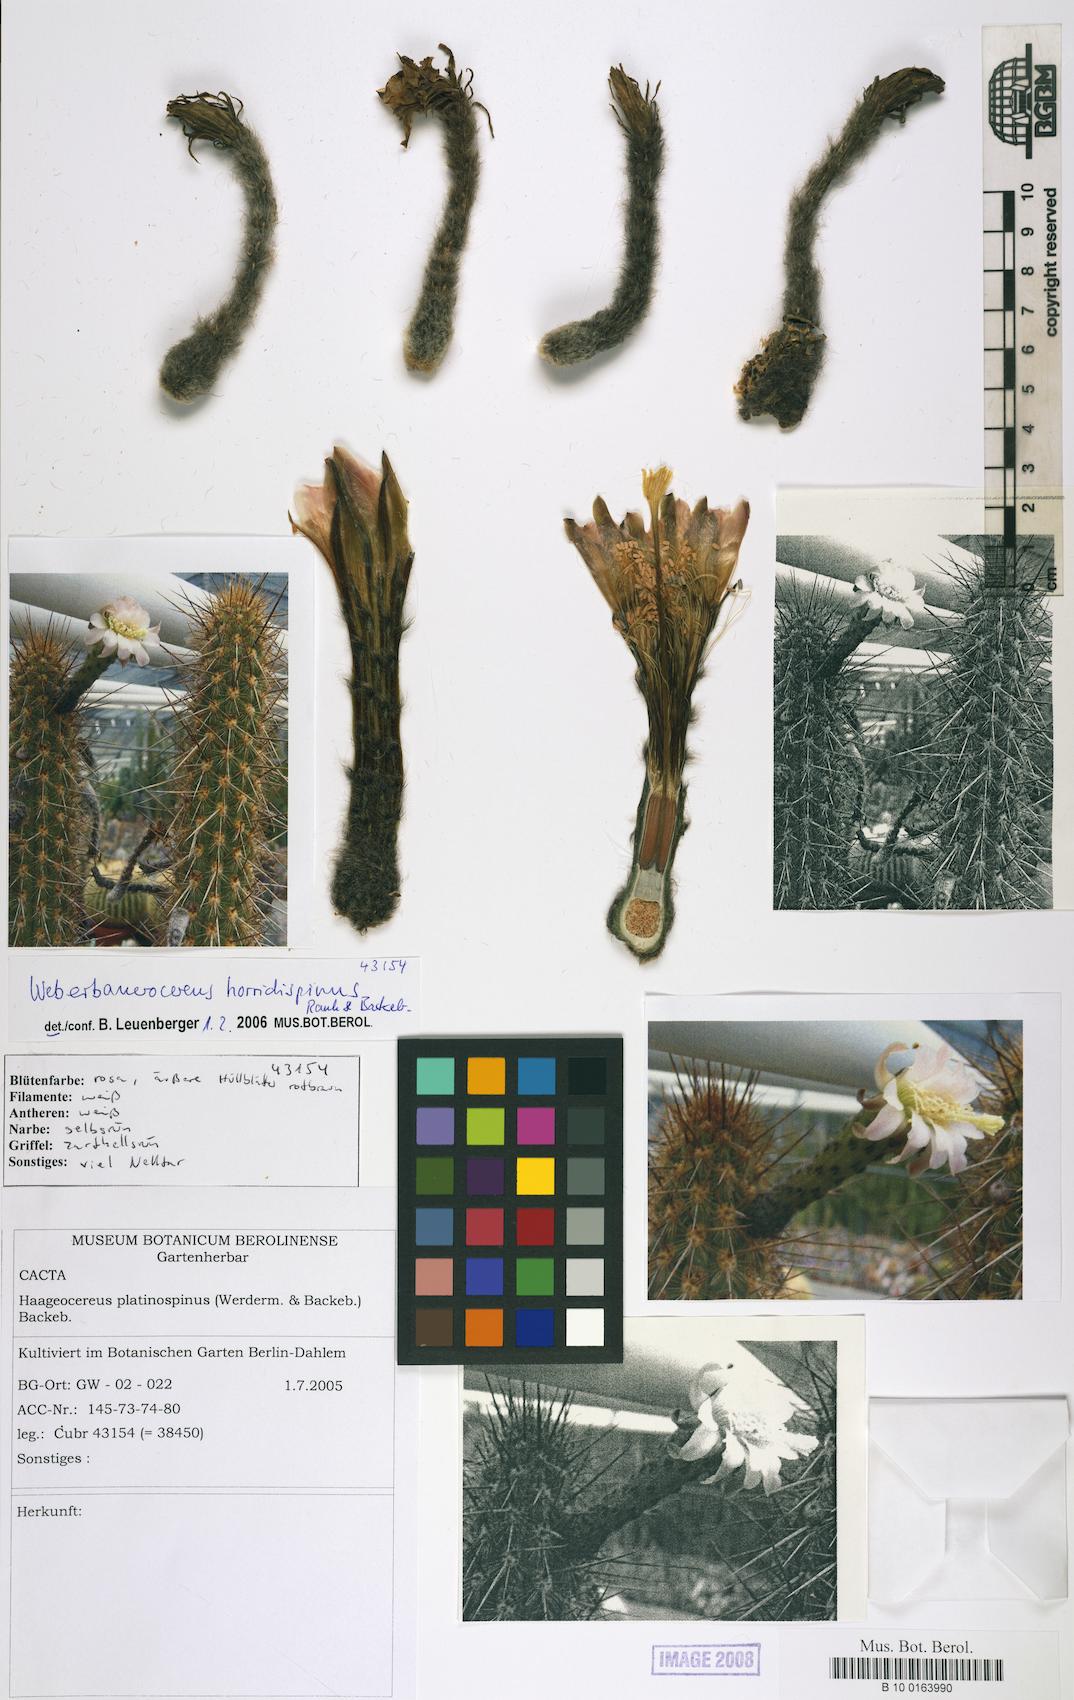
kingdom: Plantae
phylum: Tracheophyta
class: Magnoliopsida
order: Caryophyllales
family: Cactaceae
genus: Weberbauerocereus
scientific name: Weberbauerocereus weberbaueri
